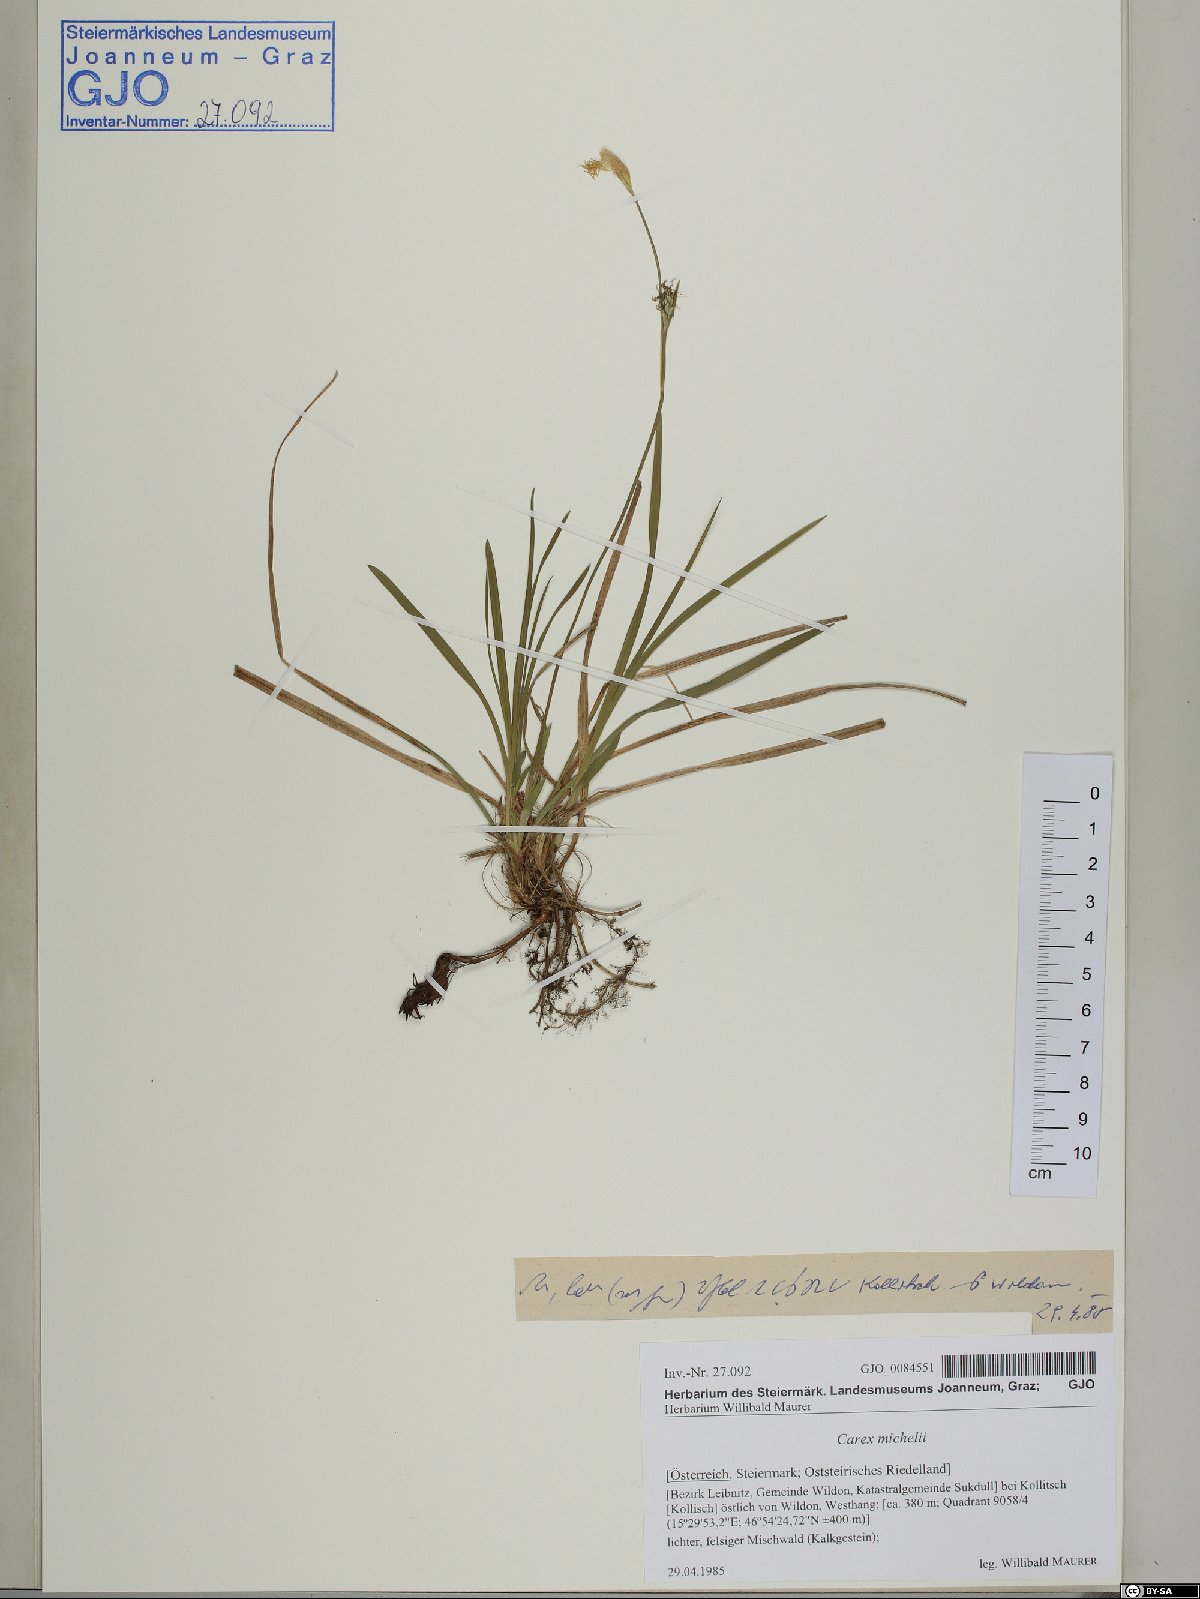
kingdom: Plantae
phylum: Tracheophyta
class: Liliopsida
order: Poales
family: Cyperaceae
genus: Carex
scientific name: Carex michelii
